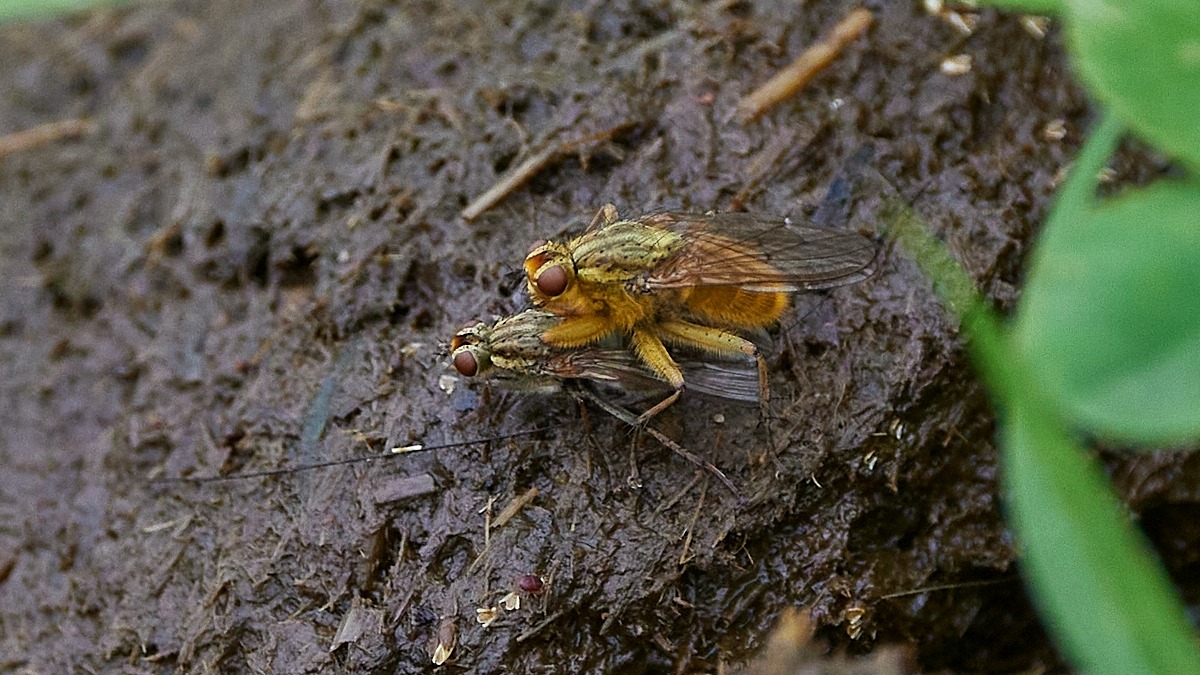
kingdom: Animalia
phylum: Arthropoda
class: Insecta
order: Diptera
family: Scathophagidae
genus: Scathophaga
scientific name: Scathophaga stercoraria
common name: Almindelig gødningsflue
